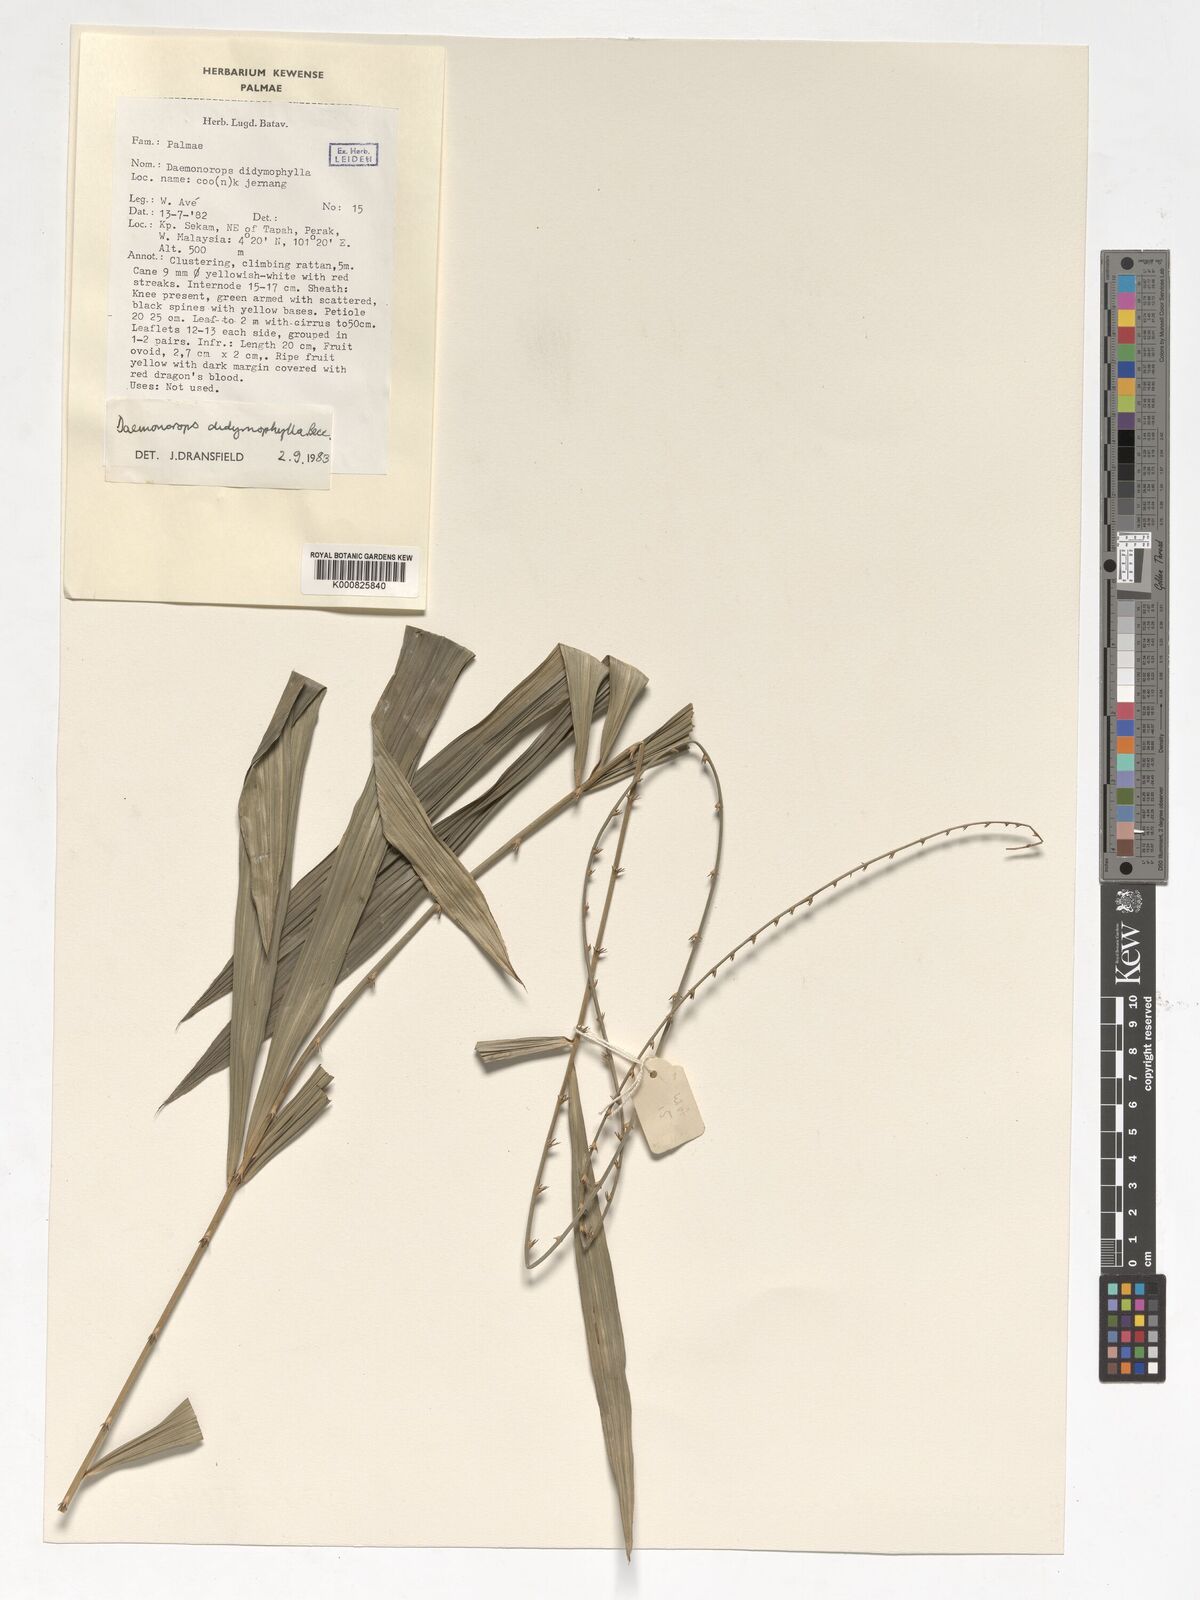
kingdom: Plantae
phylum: Tracheophyta
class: Liliopsida
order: Arecales
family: Arecaceae
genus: Calamus
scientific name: Calamus gracilipes
